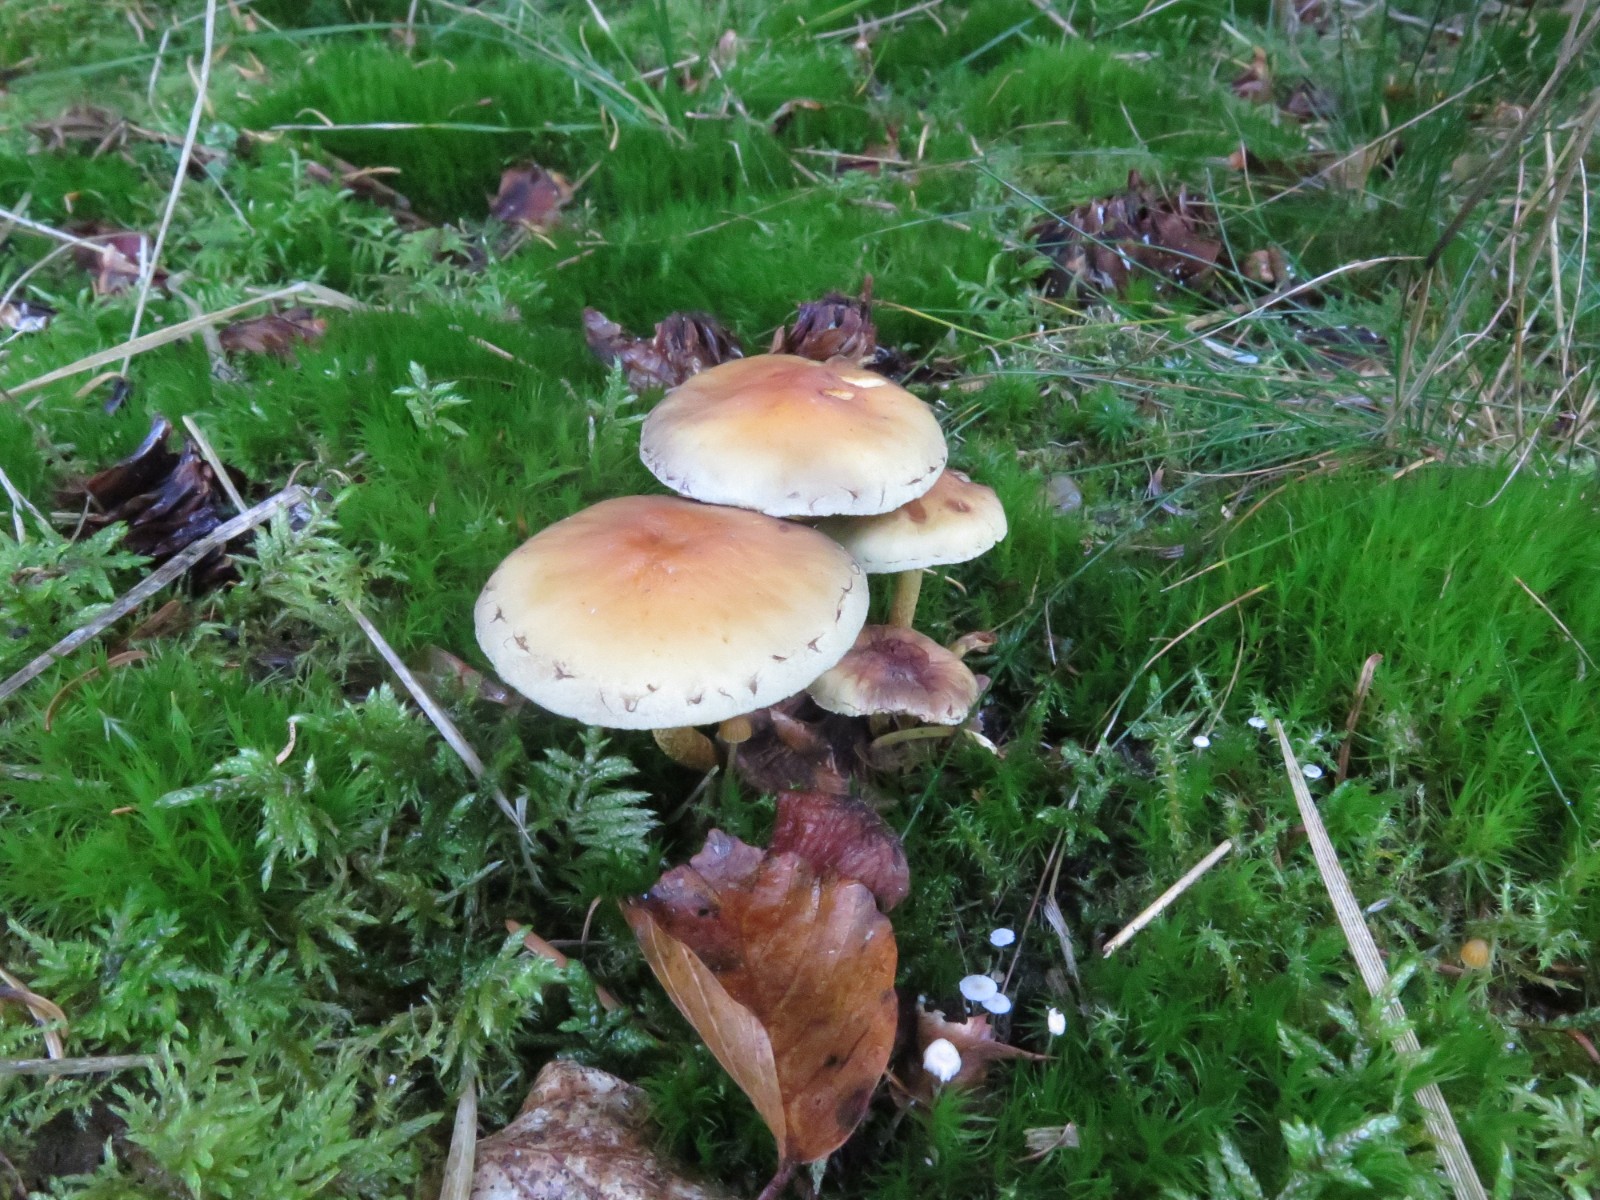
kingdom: Fungi
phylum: Basidiomycota
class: Agaricomycetes
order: Agaricales
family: Strophariaceae
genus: Hypholoma
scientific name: Hypholoma capnoides
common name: gran-svovlhat
